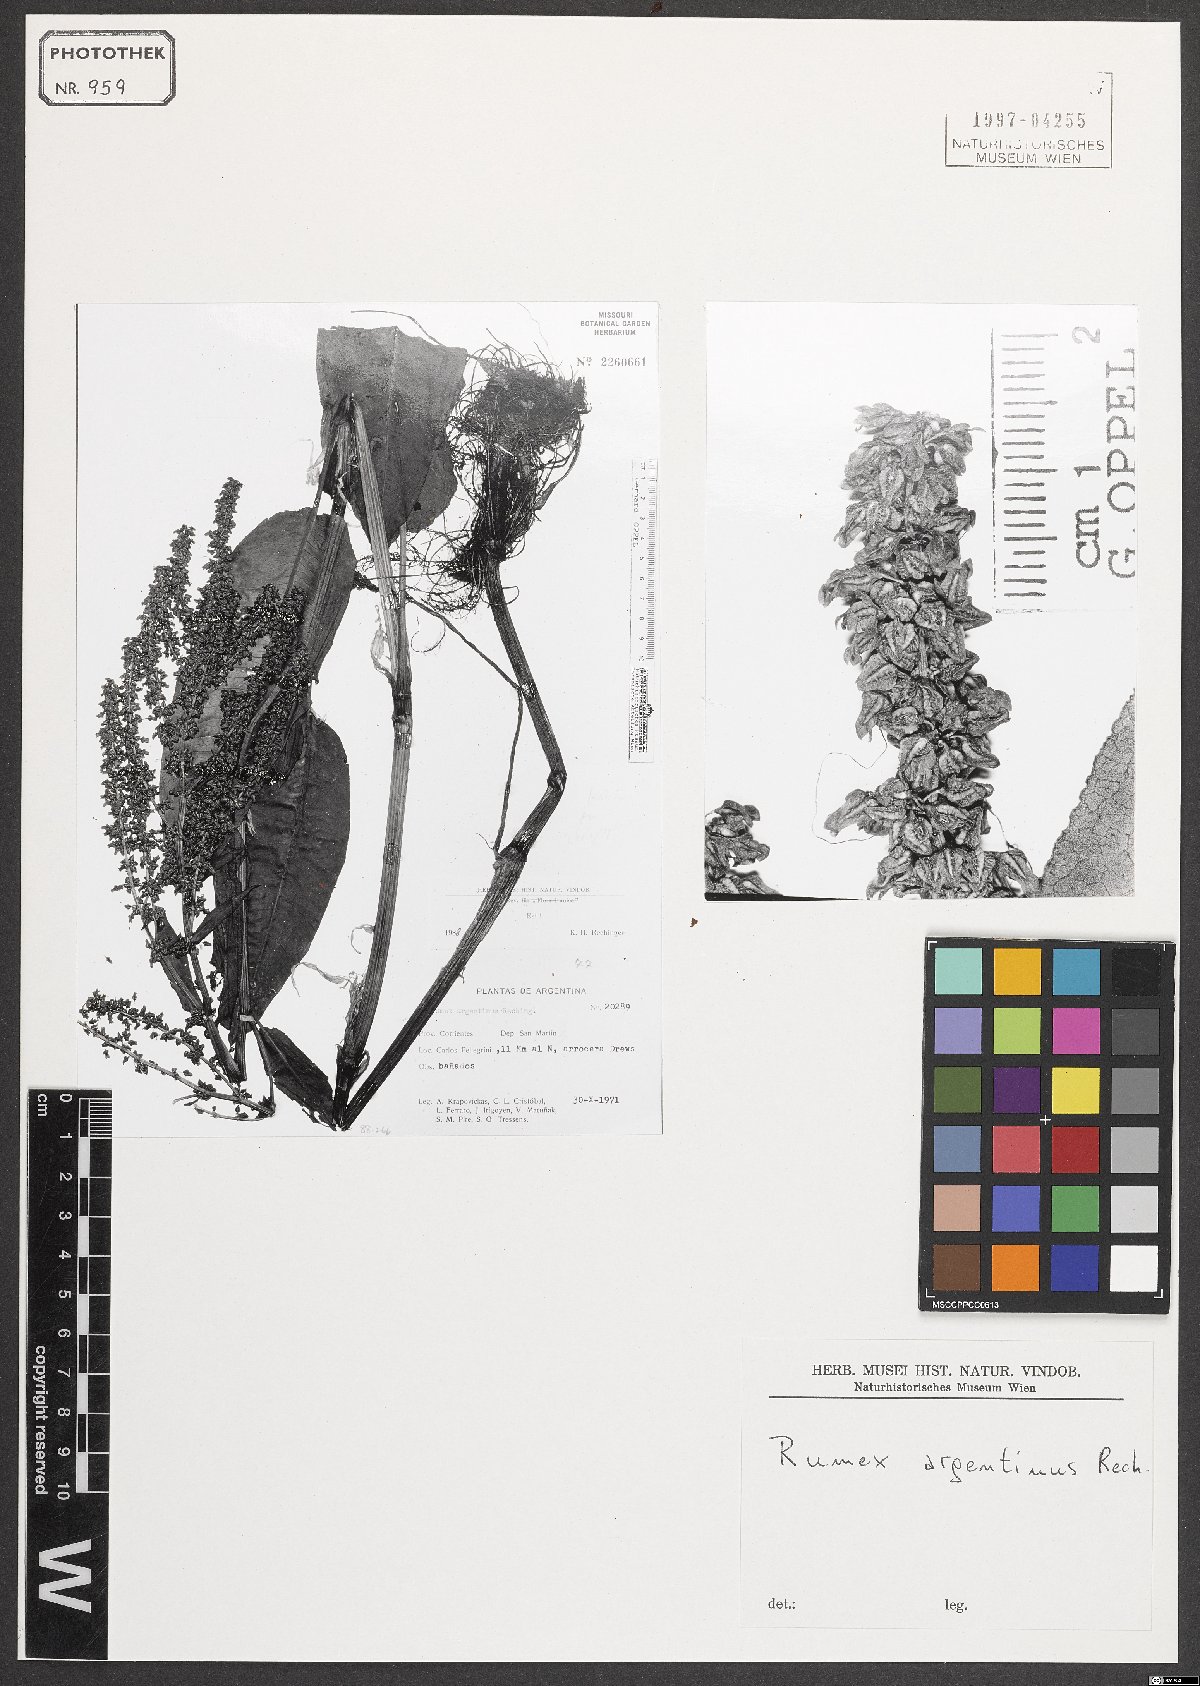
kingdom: Plantae
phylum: Tracheophyta
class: Magnoliopsida
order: Caryophyllales
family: Polygonaceae
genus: Rumex
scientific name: Rumex argentinus
